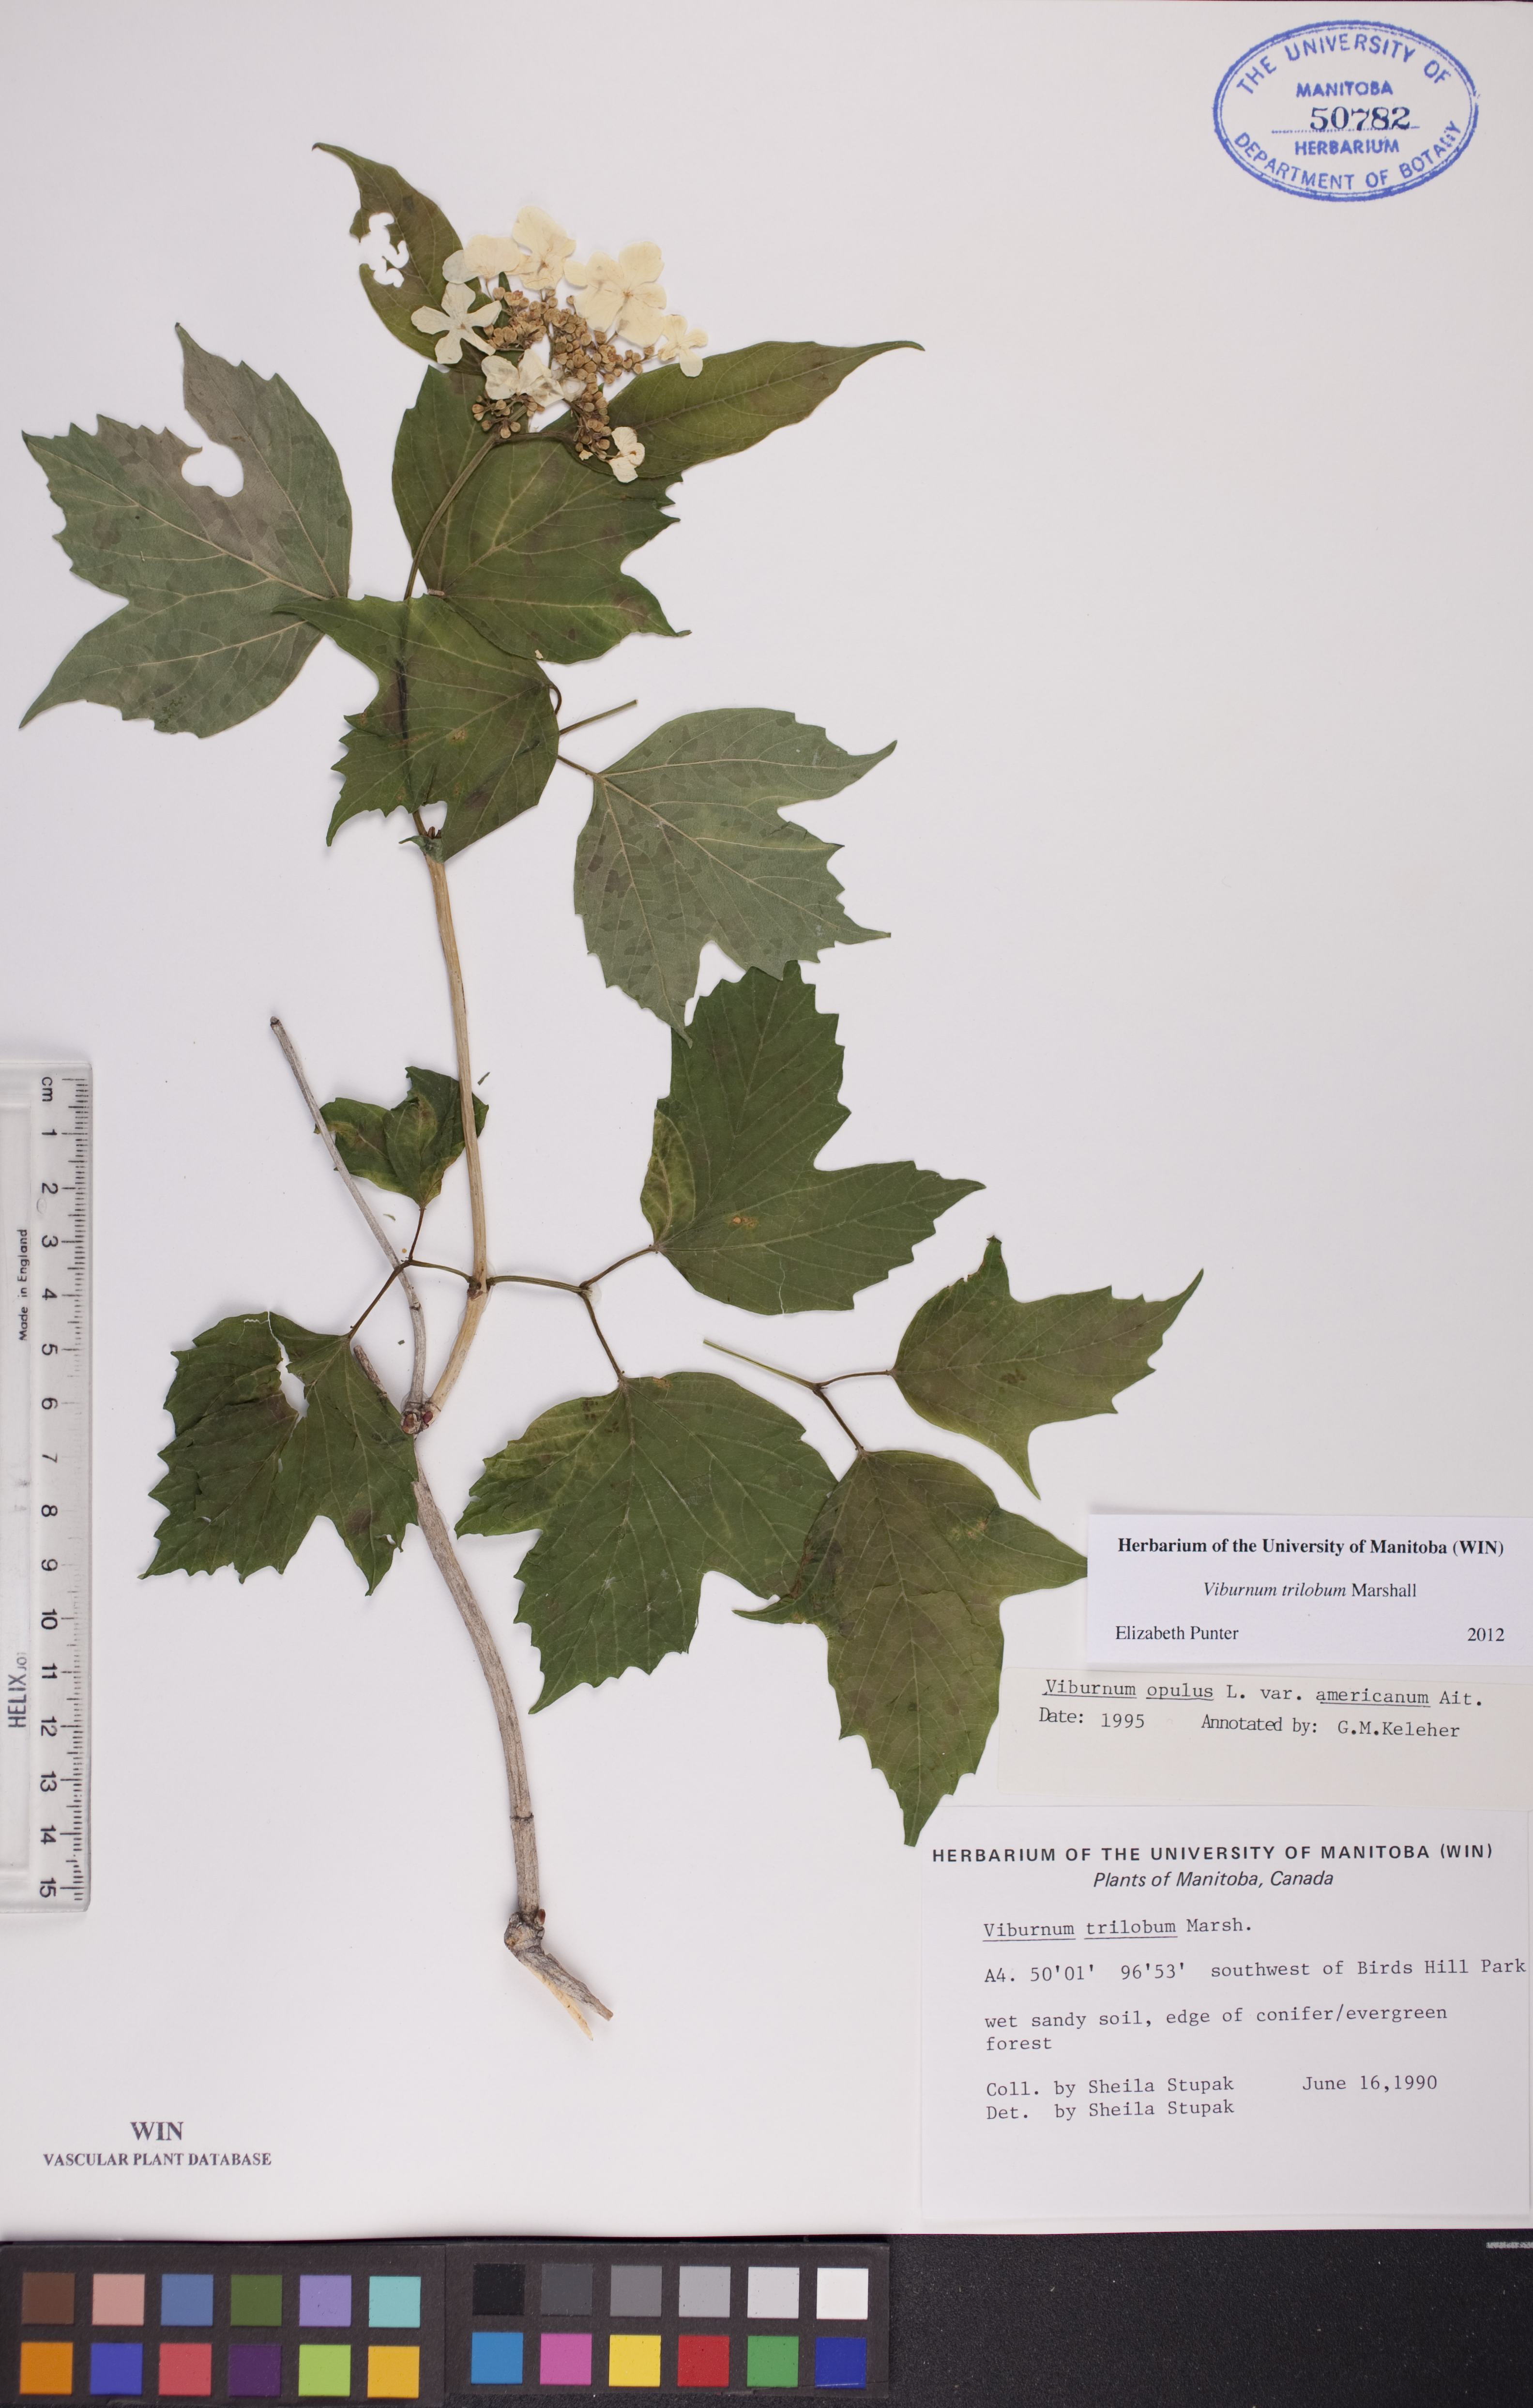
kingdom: Plantae
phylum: Tracheophyta
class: Magnoliopsida
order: Dipsacales
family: Viburnaceae
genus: Viburnum
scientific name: Viburnum trilobum
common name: American cranberrybush
